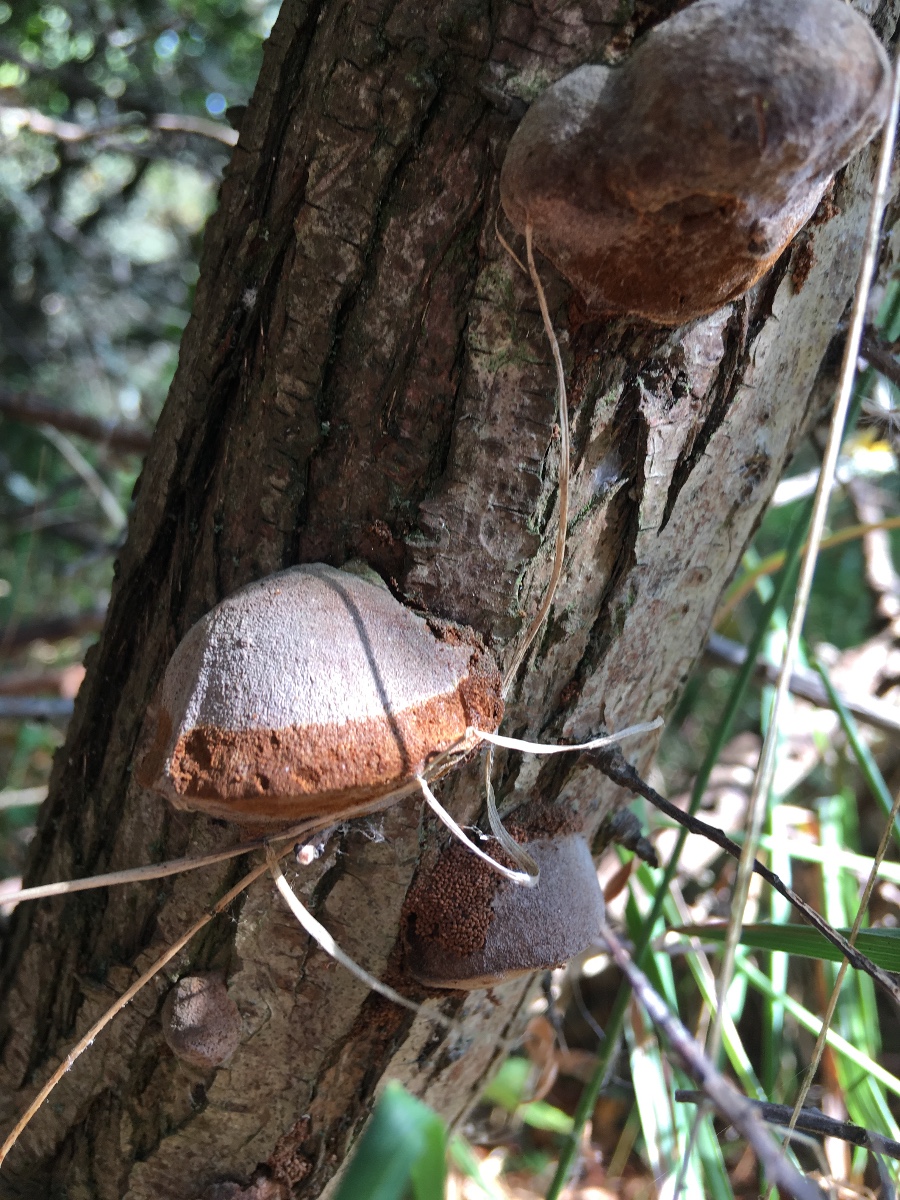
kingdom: Fungi
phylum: Basidiomycota
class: Agaricomycetes
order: Hymenochaetales
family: Hymenochaetaceae
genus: Fomitiporia
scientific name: Fomitiporia hippophaeicola
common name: havtorn-ildporesvamp
